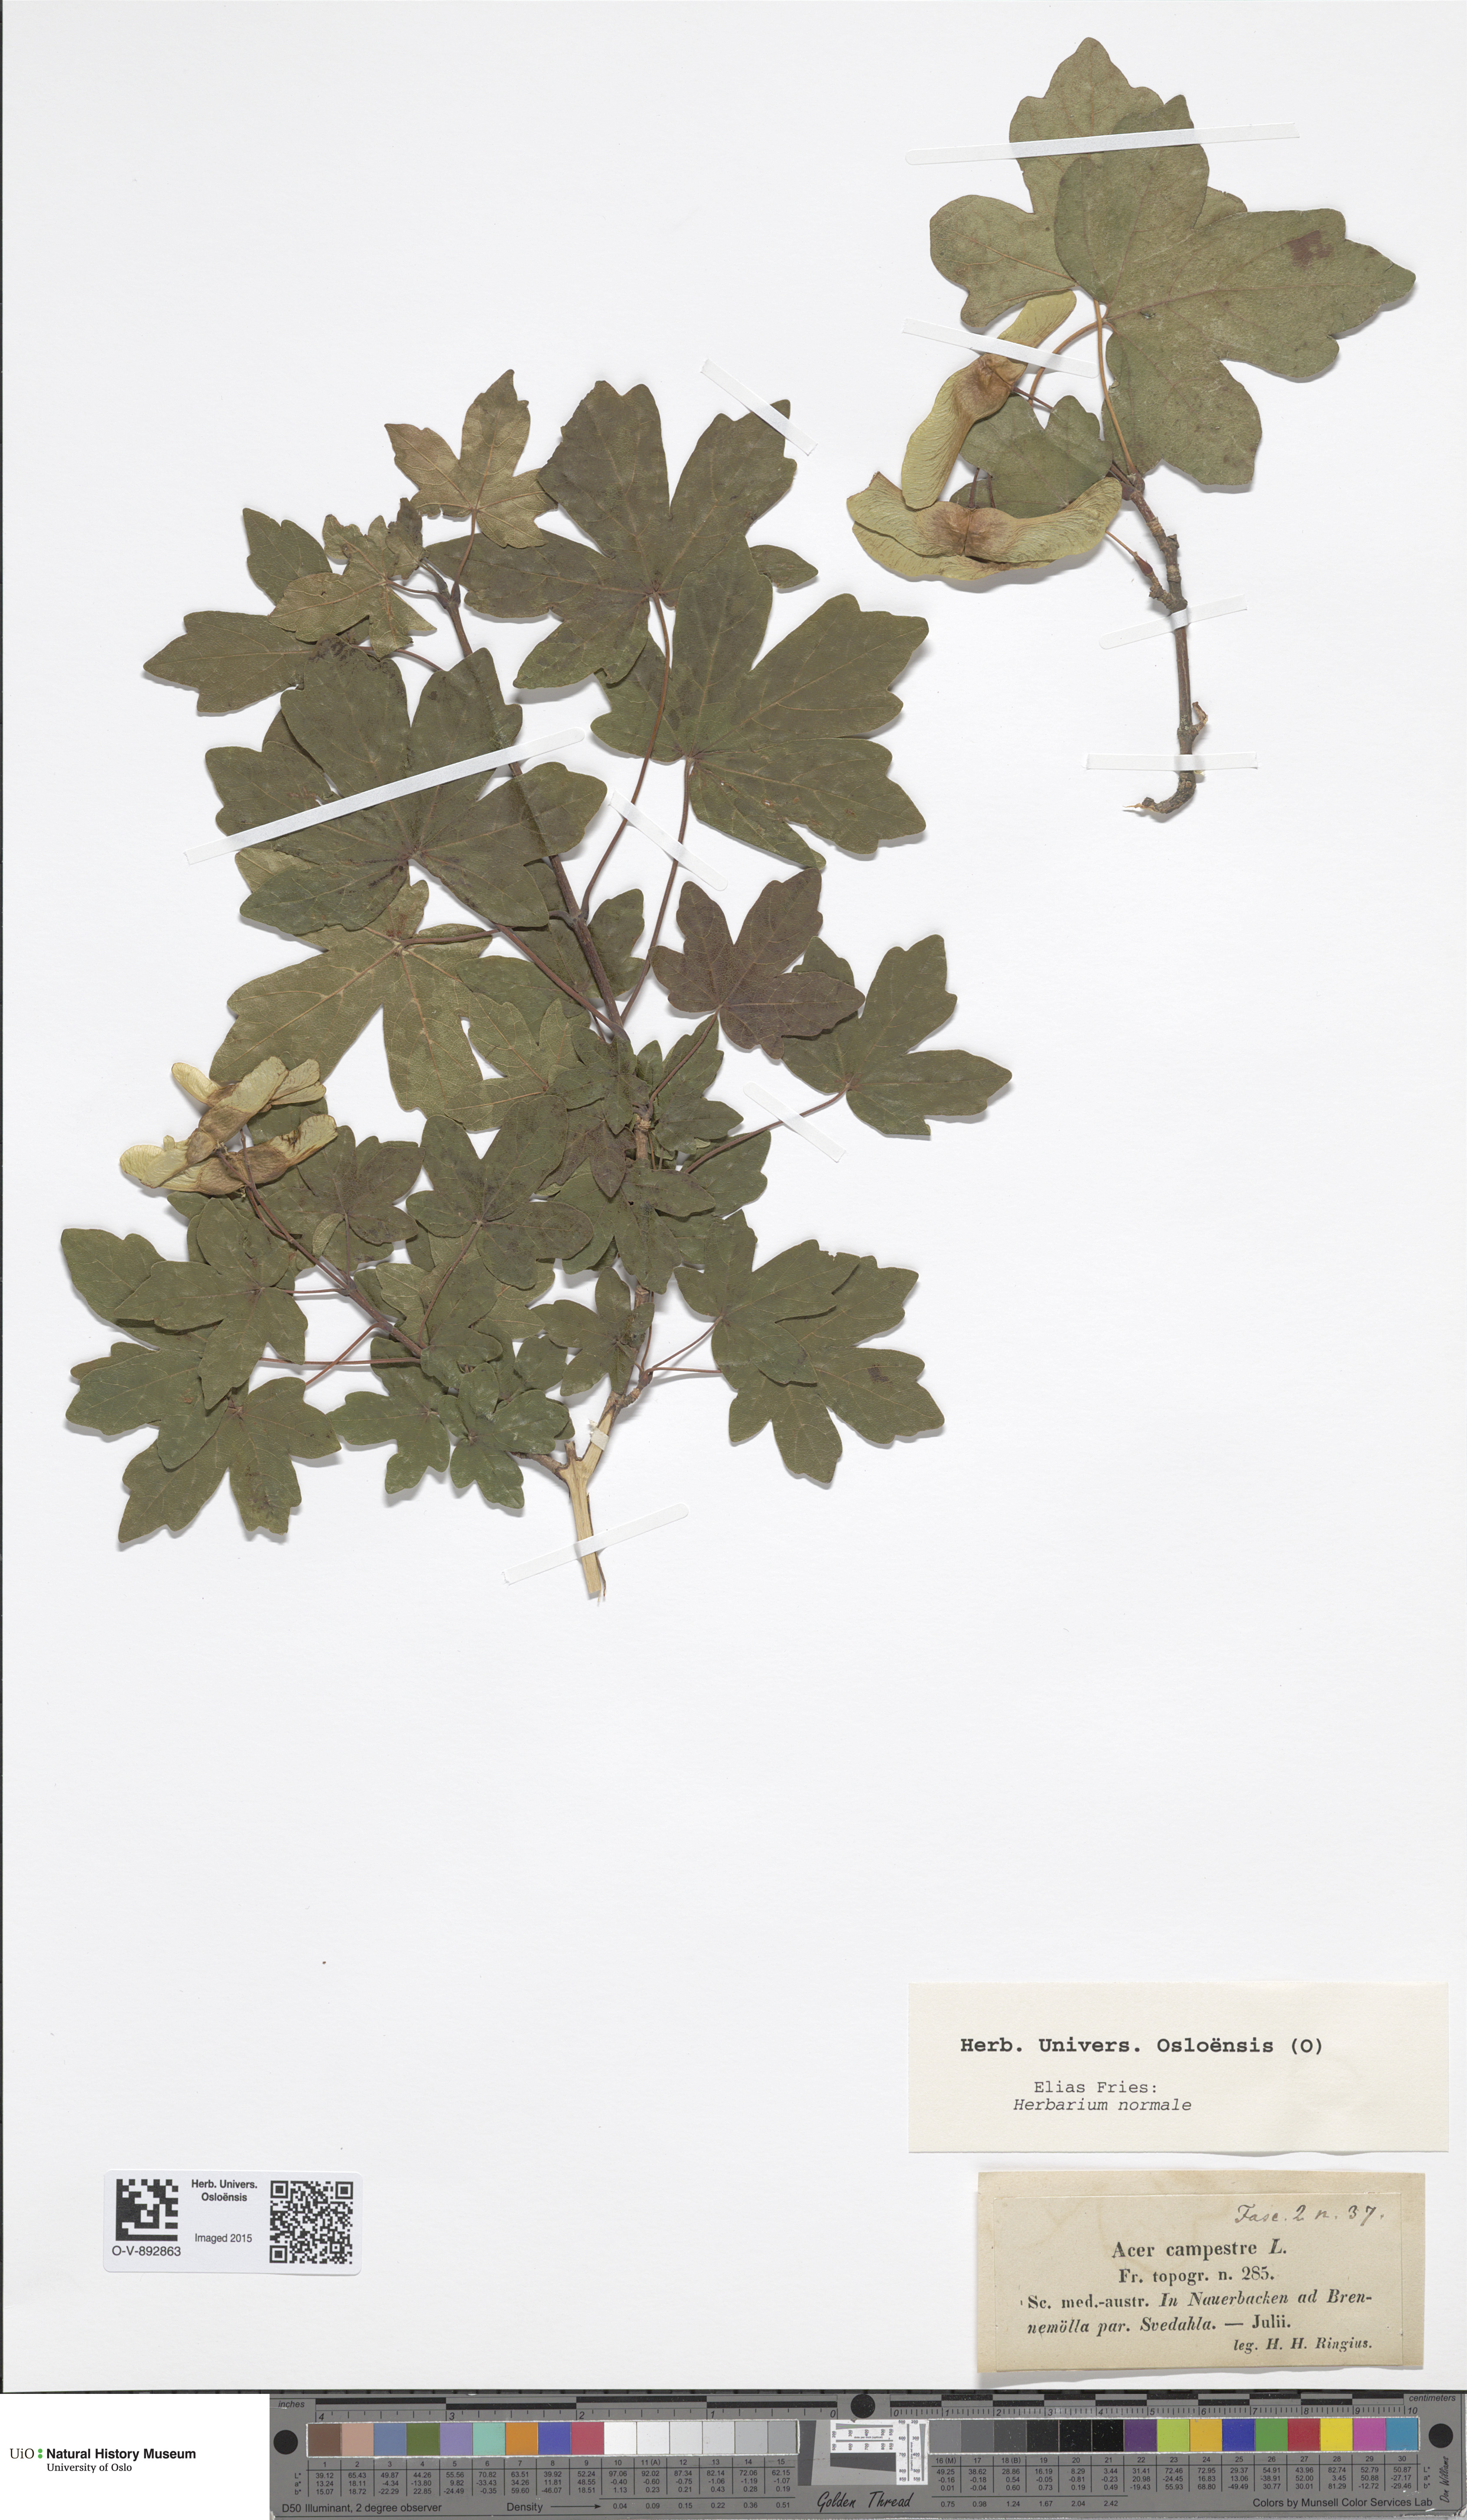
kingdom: Plantae
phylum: Tracheophyta
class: Magnoliopsida
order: Sapindales
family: Sapindaceae
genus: Acer
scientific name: Acer campestre
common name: Field maple
